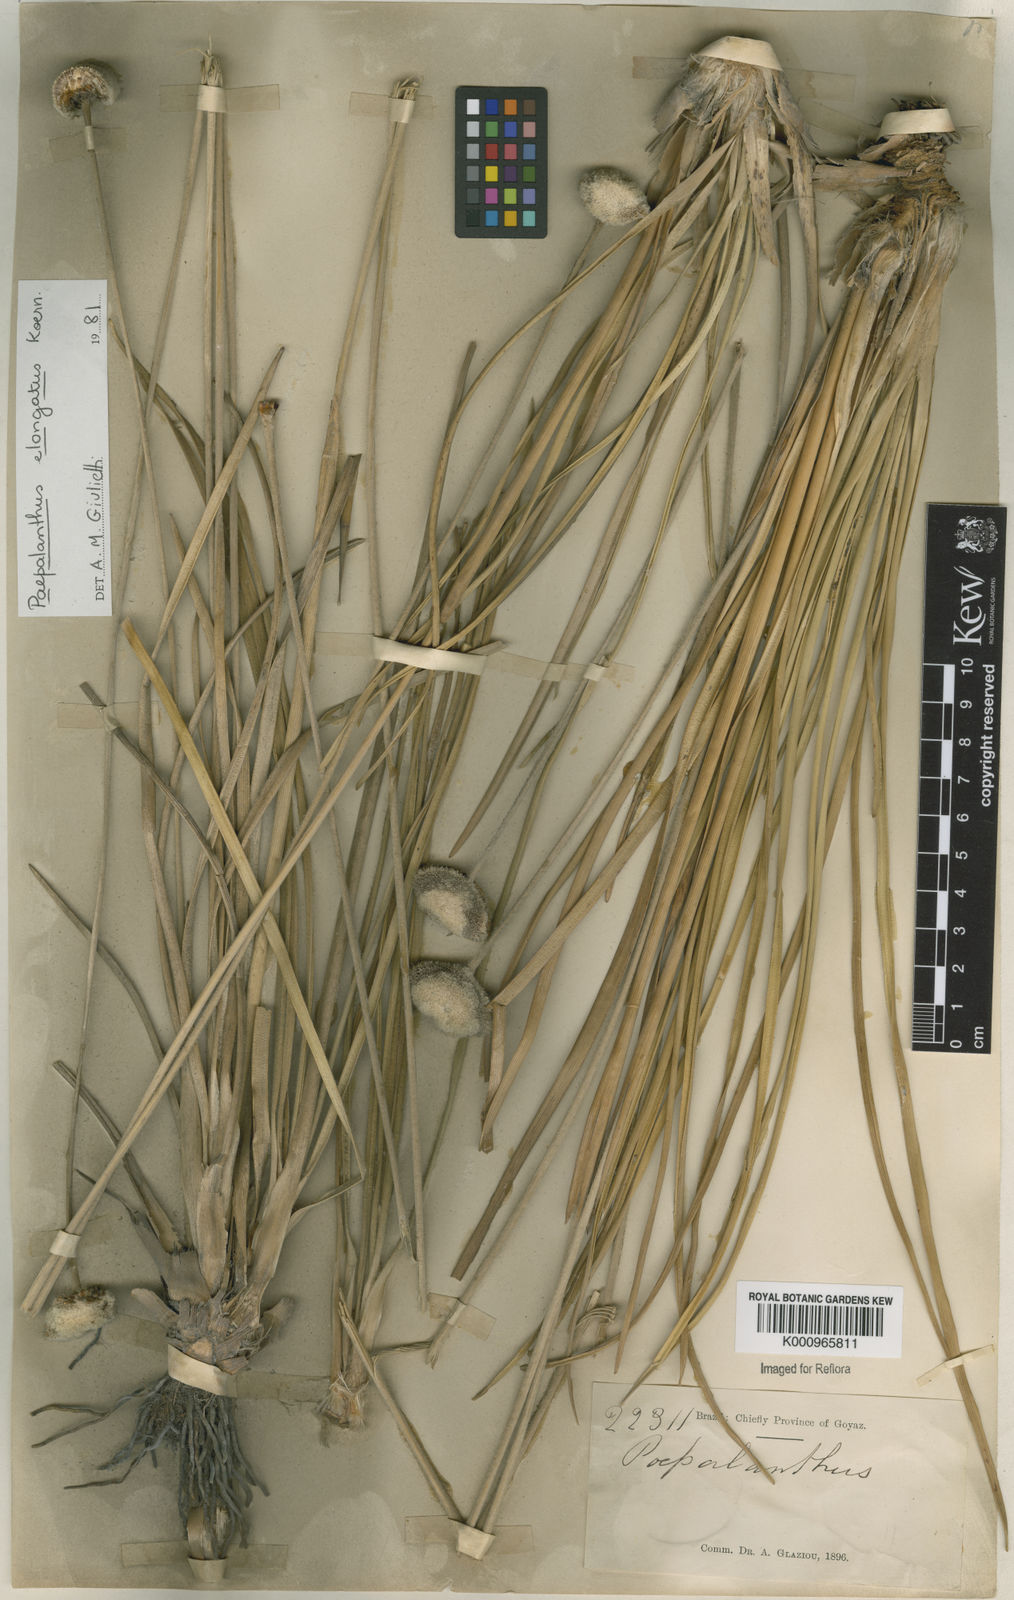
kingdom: Plantae
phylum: Tracheophyta
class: Liliopsida
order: Poales
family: Eriocaulaceae
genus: Paepalanthus
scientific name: Paepalanthus
